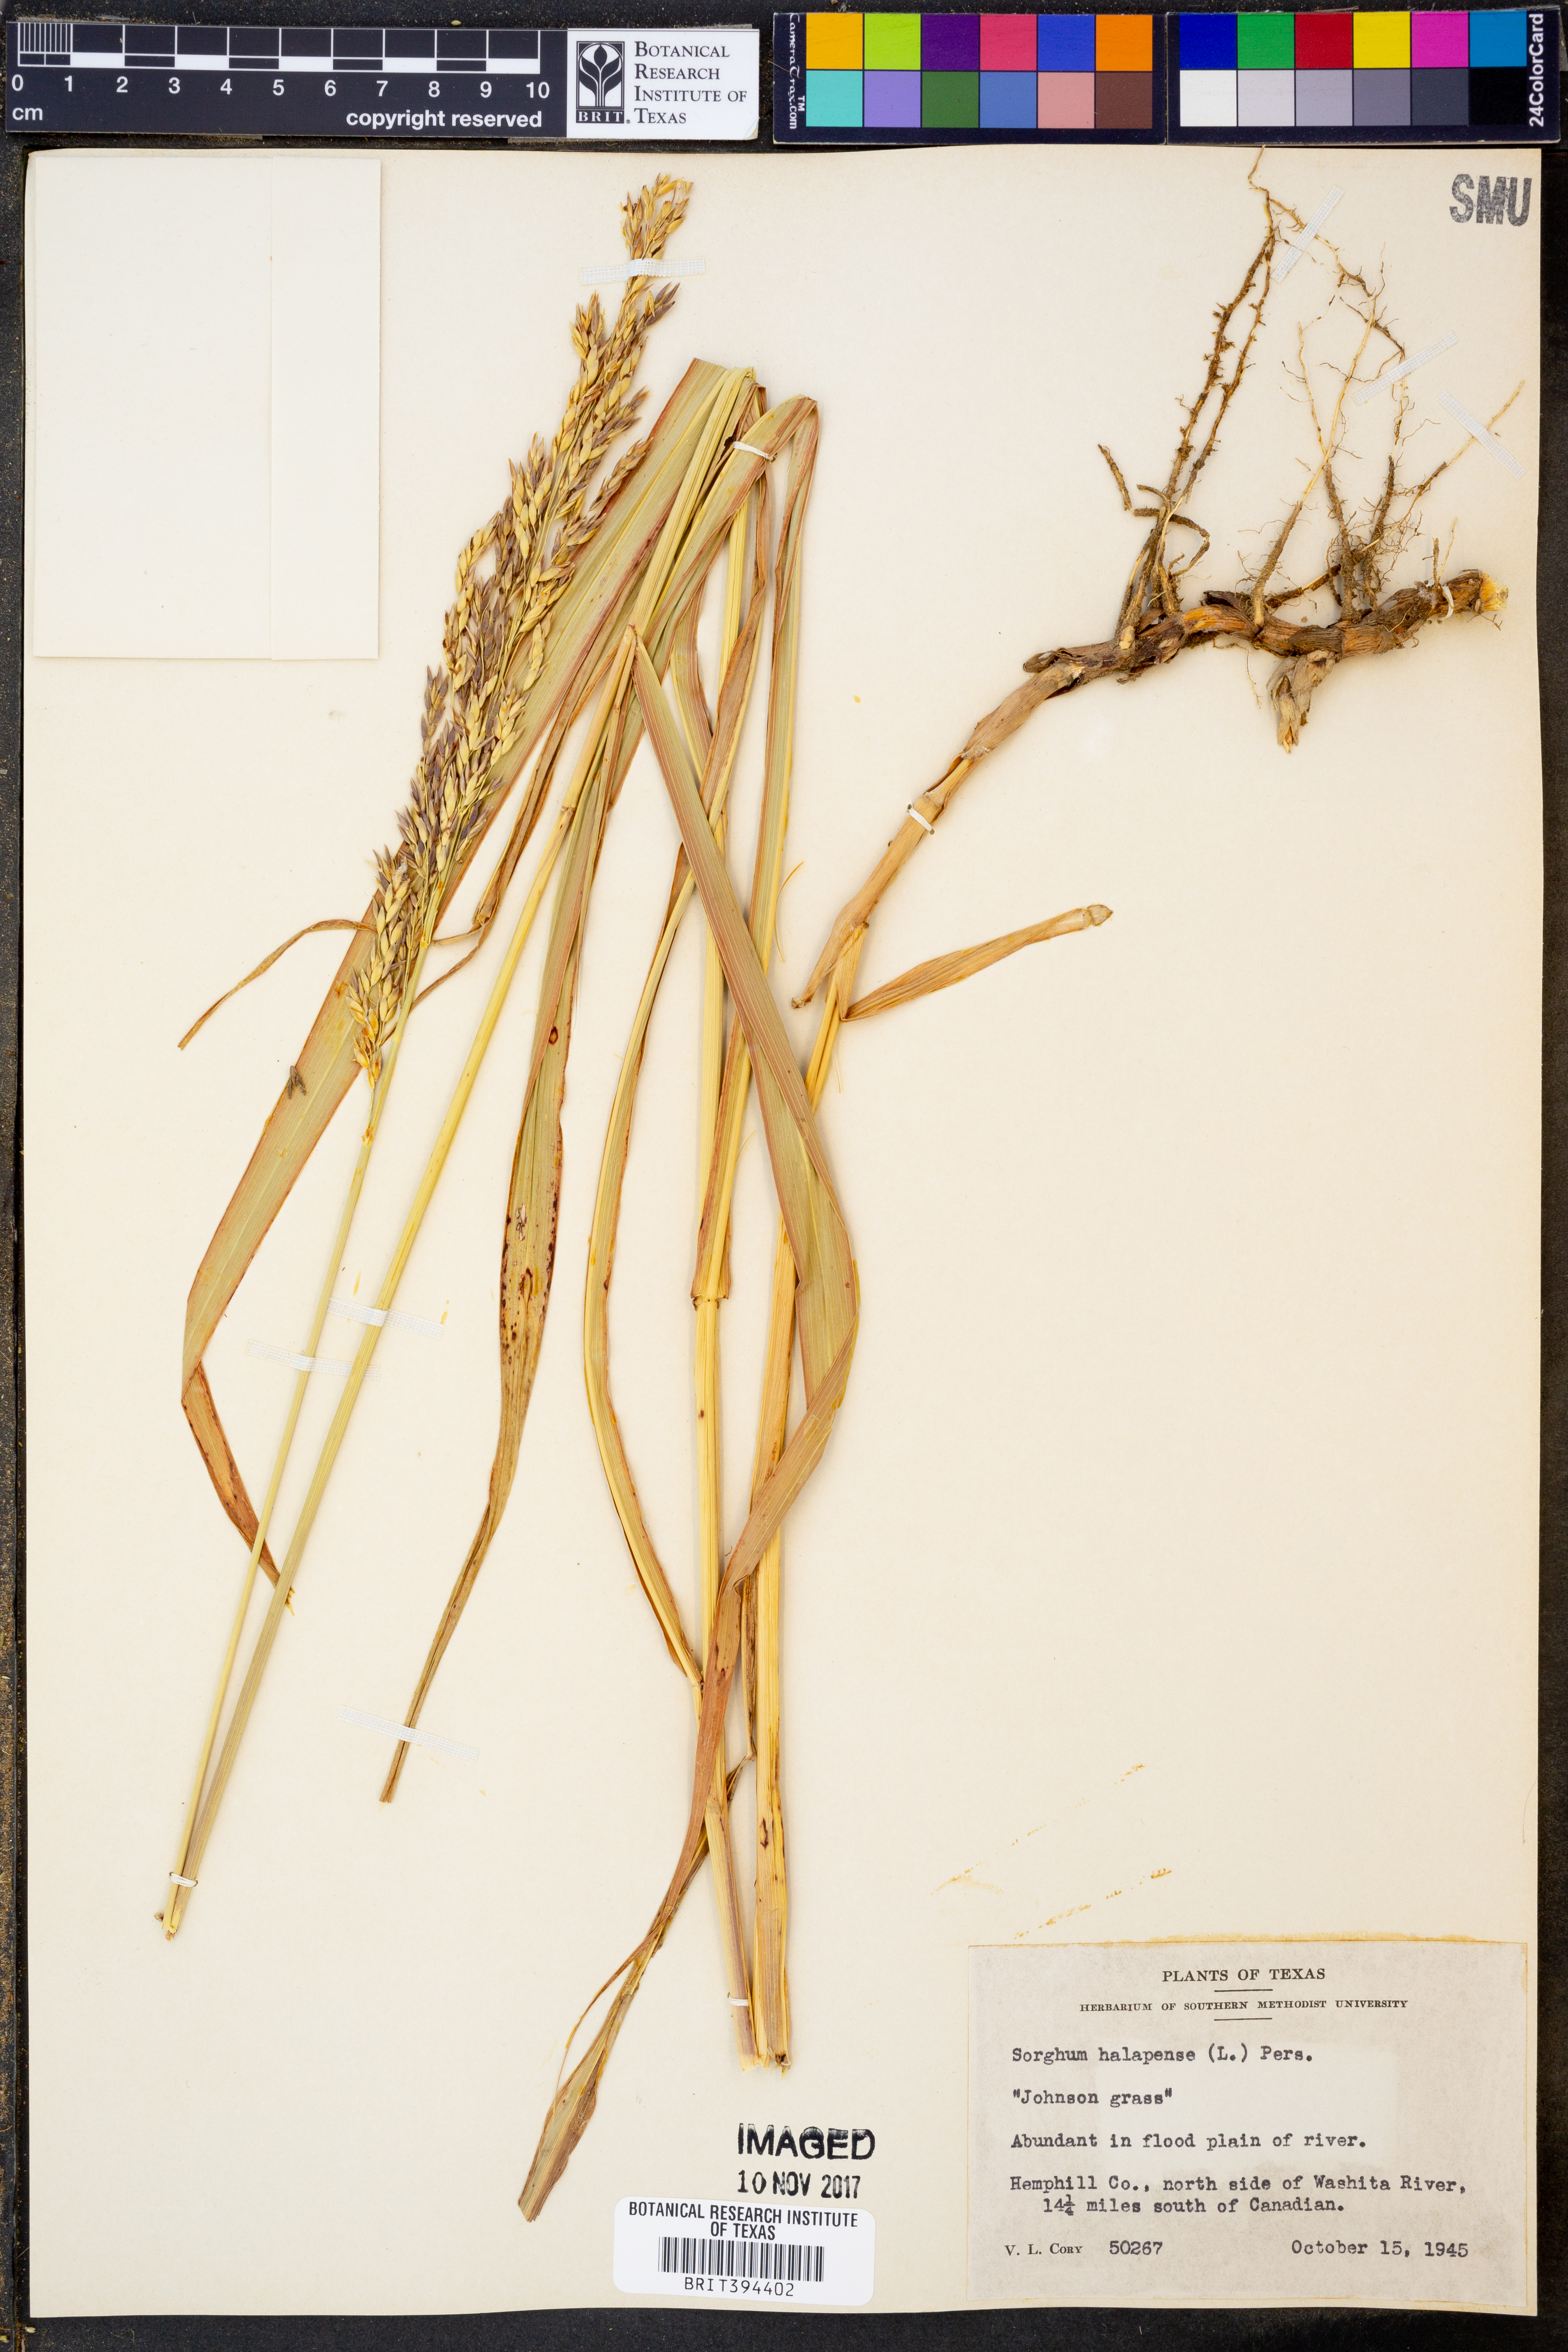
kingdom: Plantae
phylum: Tracheophyta
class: Liliopsida
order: Poales
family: Poaceae
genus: Sorghum
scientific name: Sorghum halepense
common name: Johnson-grass
